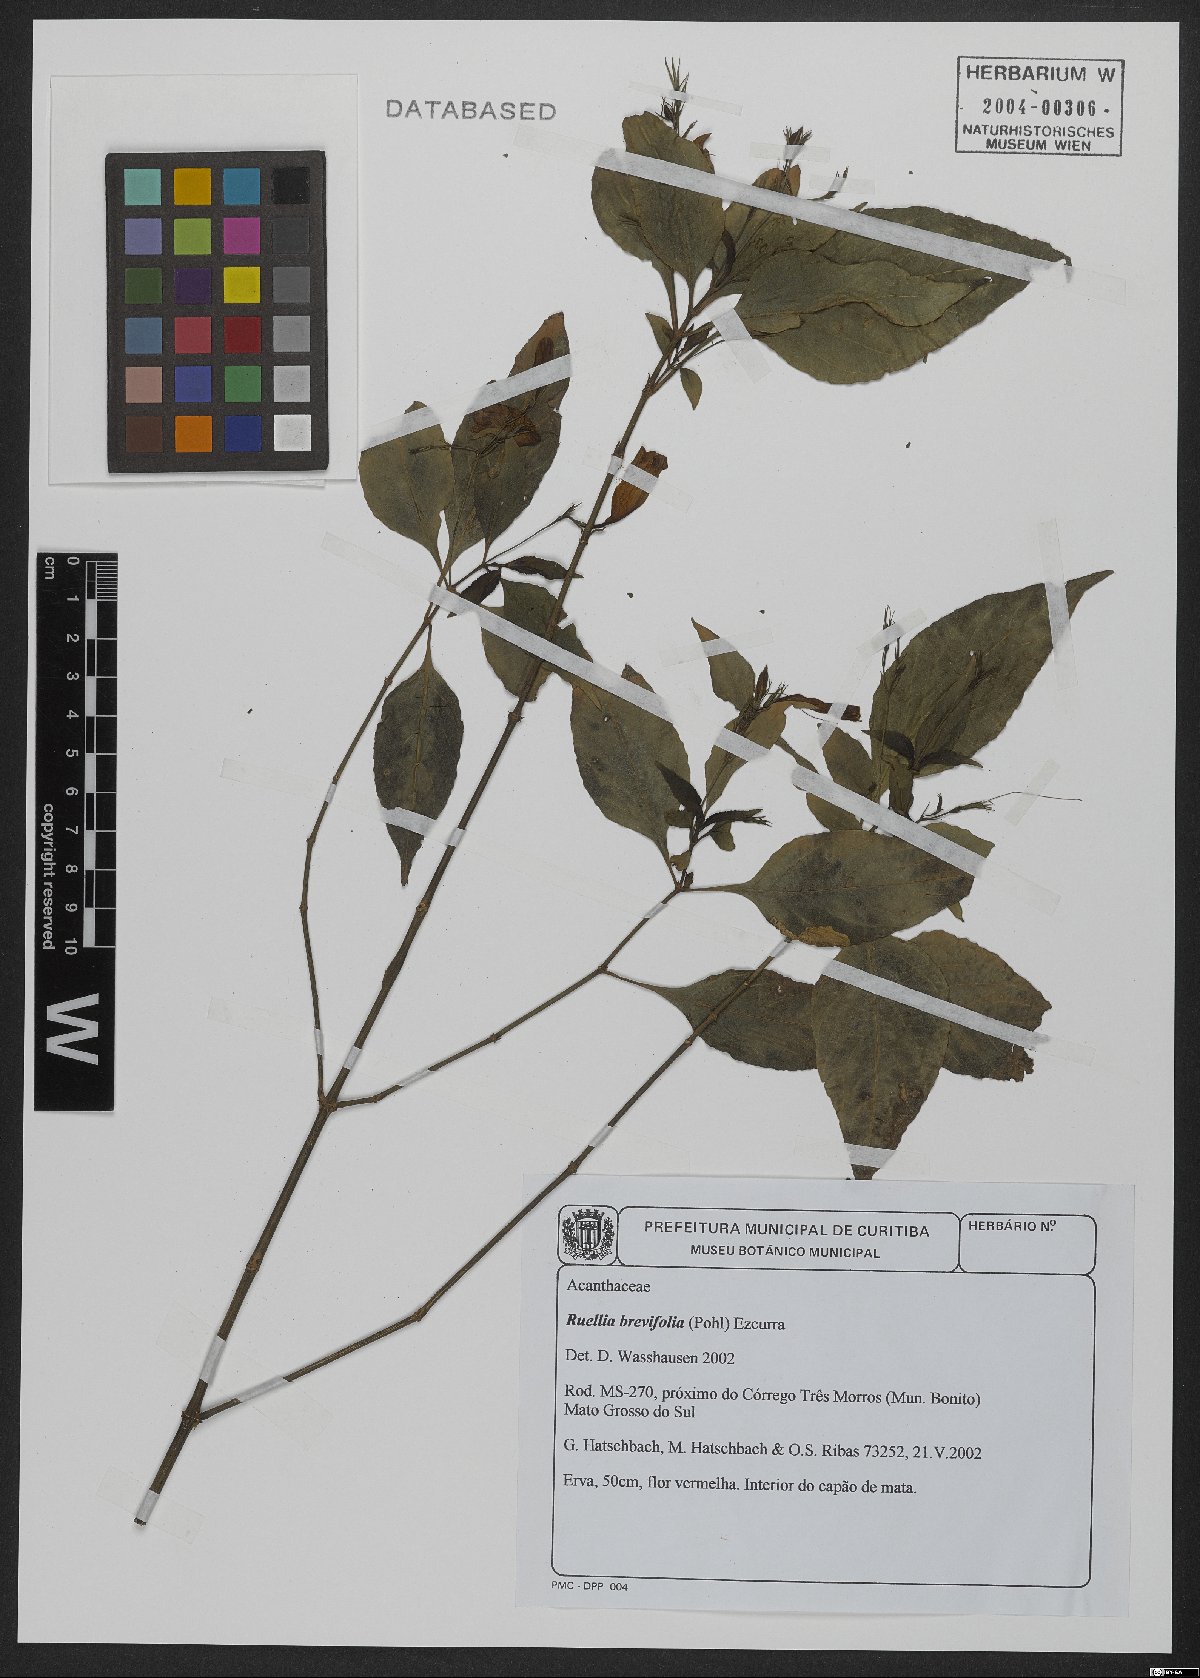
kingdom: Plantae
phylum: Tracheophyta
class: Magnoliopsida
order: Lamiales
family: Acanthaceae
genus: Ruellia
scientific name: Ruellia brevifolia
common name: Tropical wild petunia
